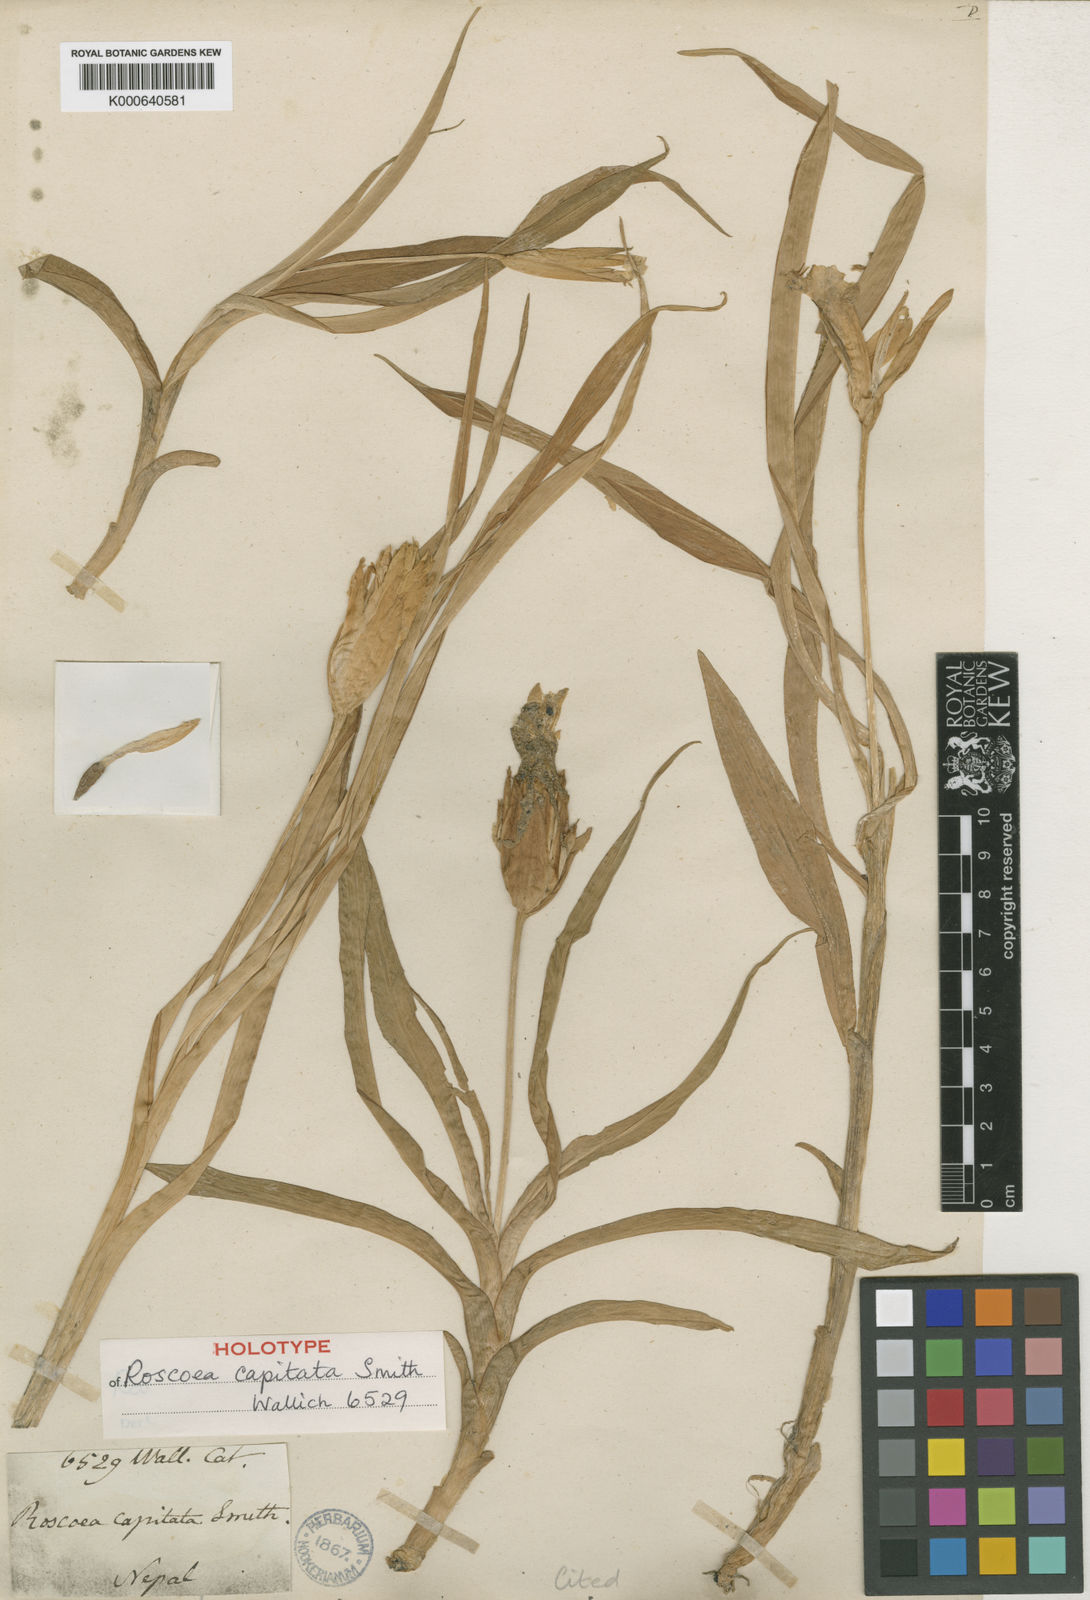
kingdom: Plantae
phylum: Tracheophyta
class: Liliopsida
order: Zingiberales
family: Zingiberaceae
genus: Roscoea
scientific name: Roscoea capitata
